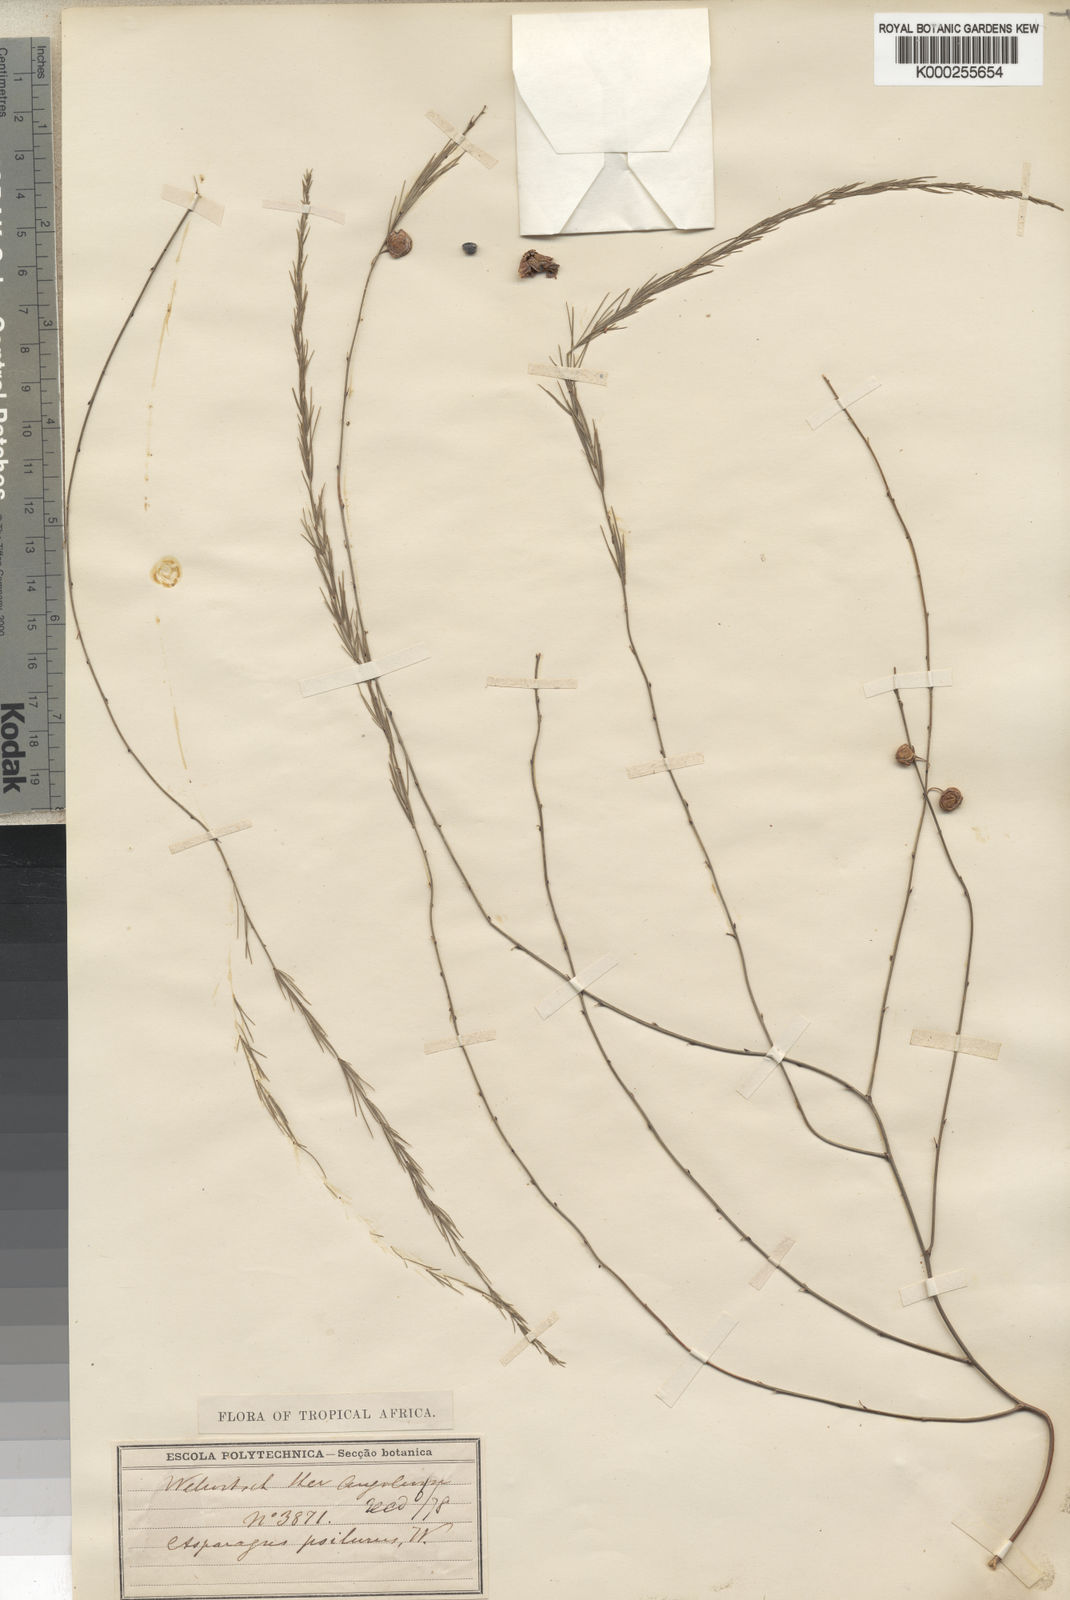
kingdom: Plantae
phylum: Tracheophyta
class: Liliopsida
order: Asparagales
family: Asparagaceae
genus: Asparagus
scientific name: Asparagus psilurus
